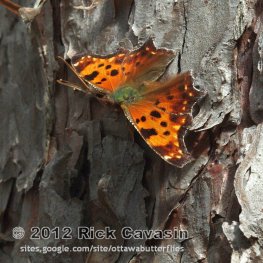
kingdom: Animalia
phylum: Arthropoda
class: Insecta
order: Lepidoptera
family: Nymphalidae
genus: Polygonia
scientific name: Polygonia comma
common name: Eastern Comma
